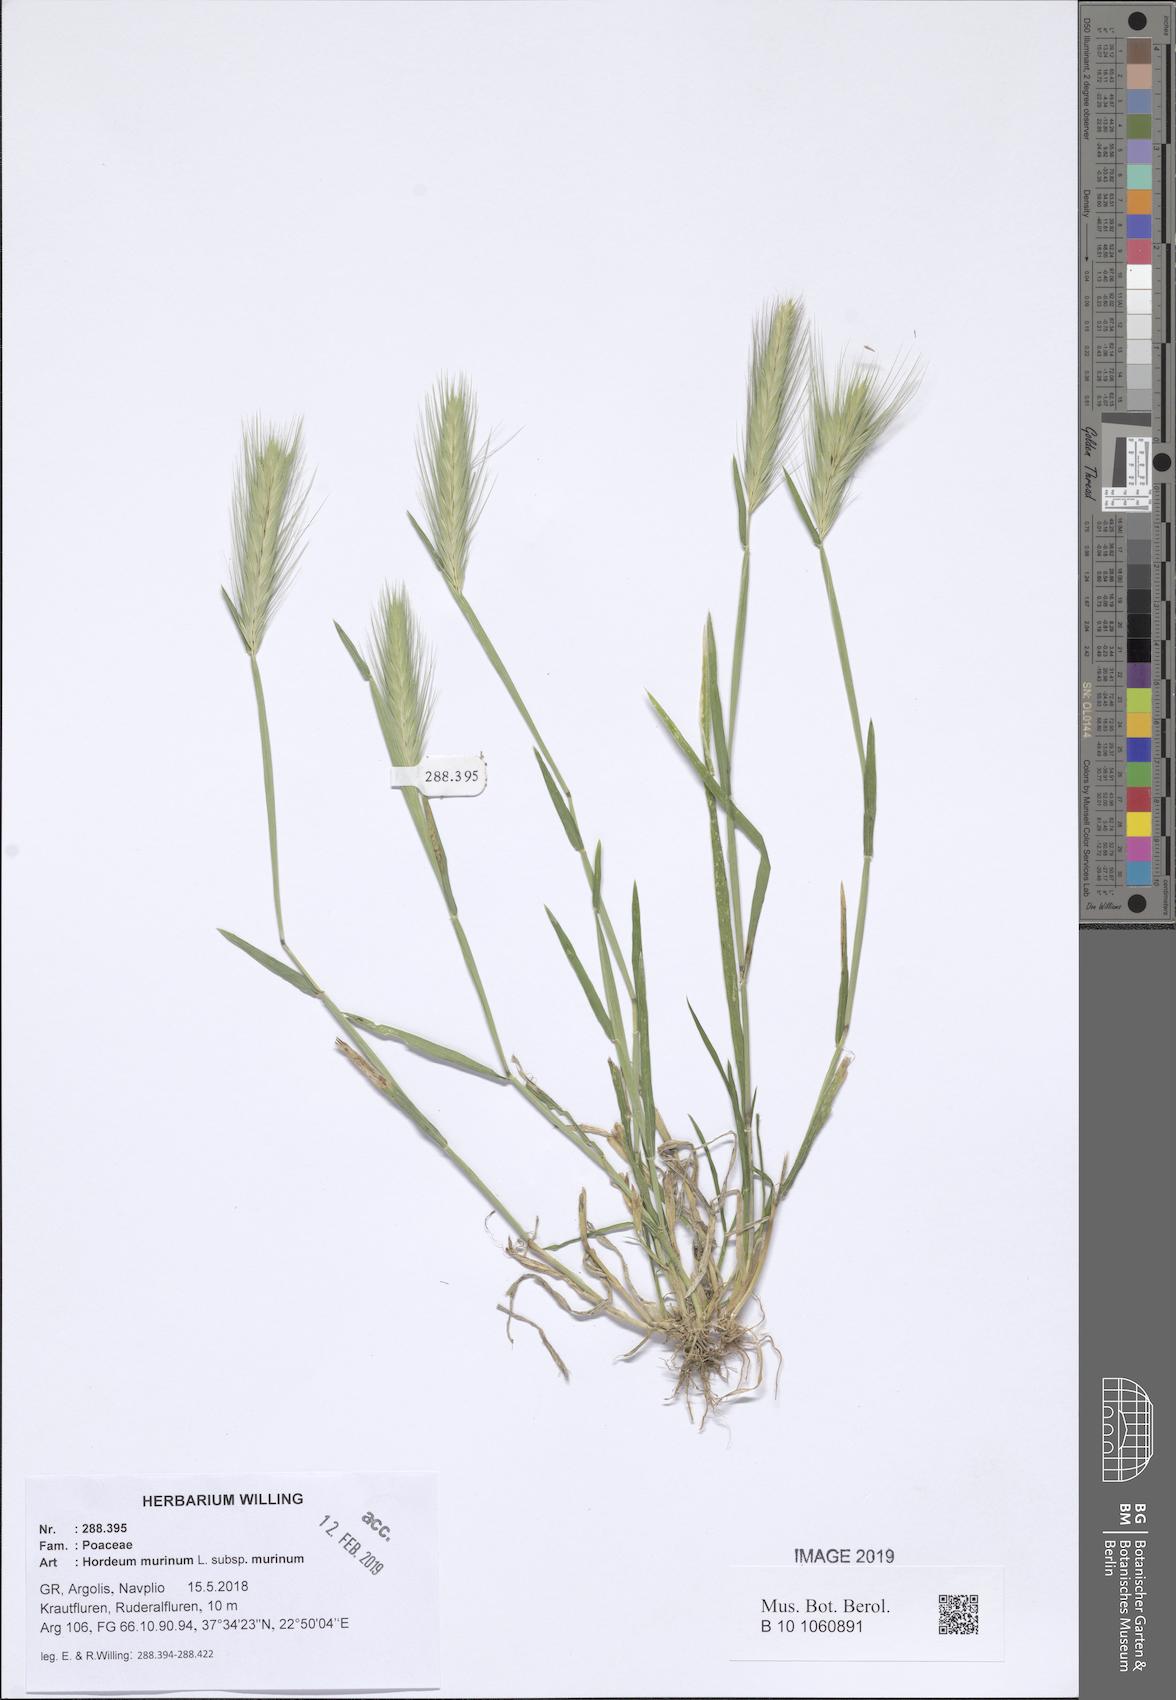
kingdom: Plantae
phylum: Tracheophyta
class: Liliopsida
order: Poales
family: Poaceae
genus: Hordeum
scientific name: Hordeum murinum
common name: Wall barley
